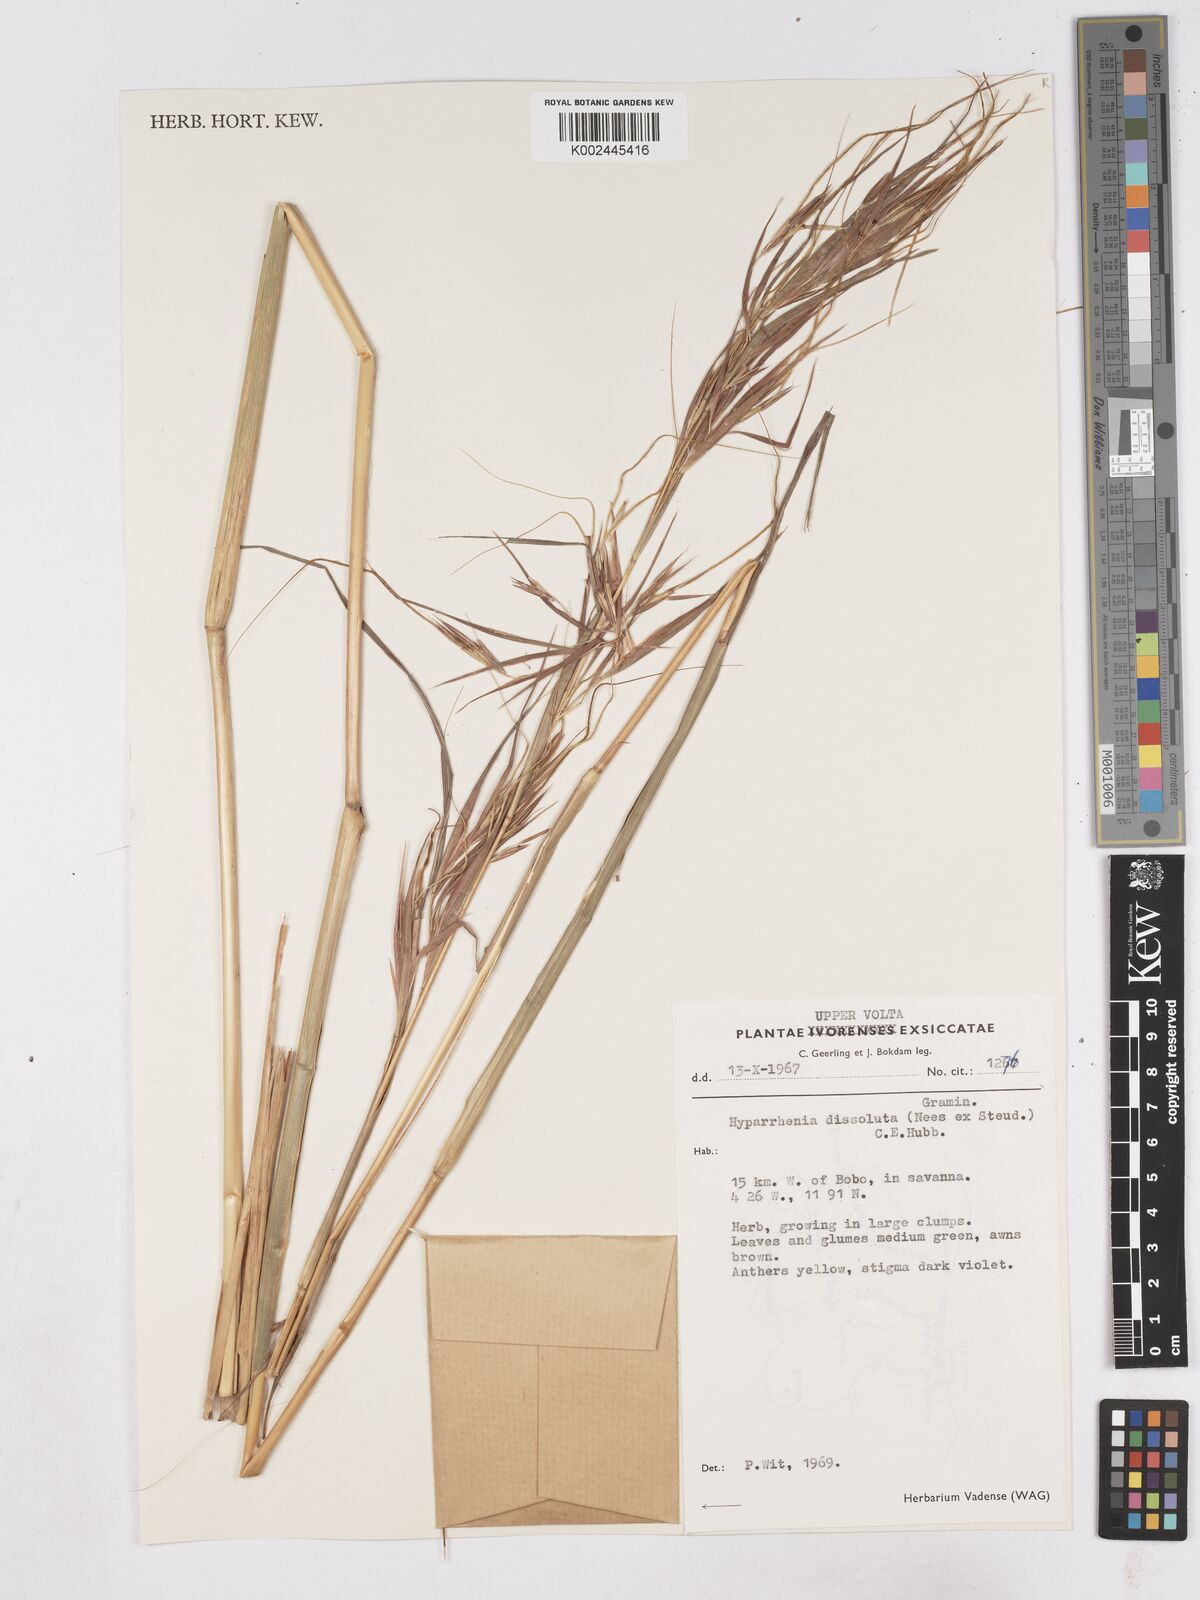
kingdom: Plantae
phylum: Tracheophyta
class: Liliopsida
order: Poales
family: Poaceae
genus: Hyperthelia
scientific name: Hyperthelia dissoluta
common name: Yellow thatching grass
